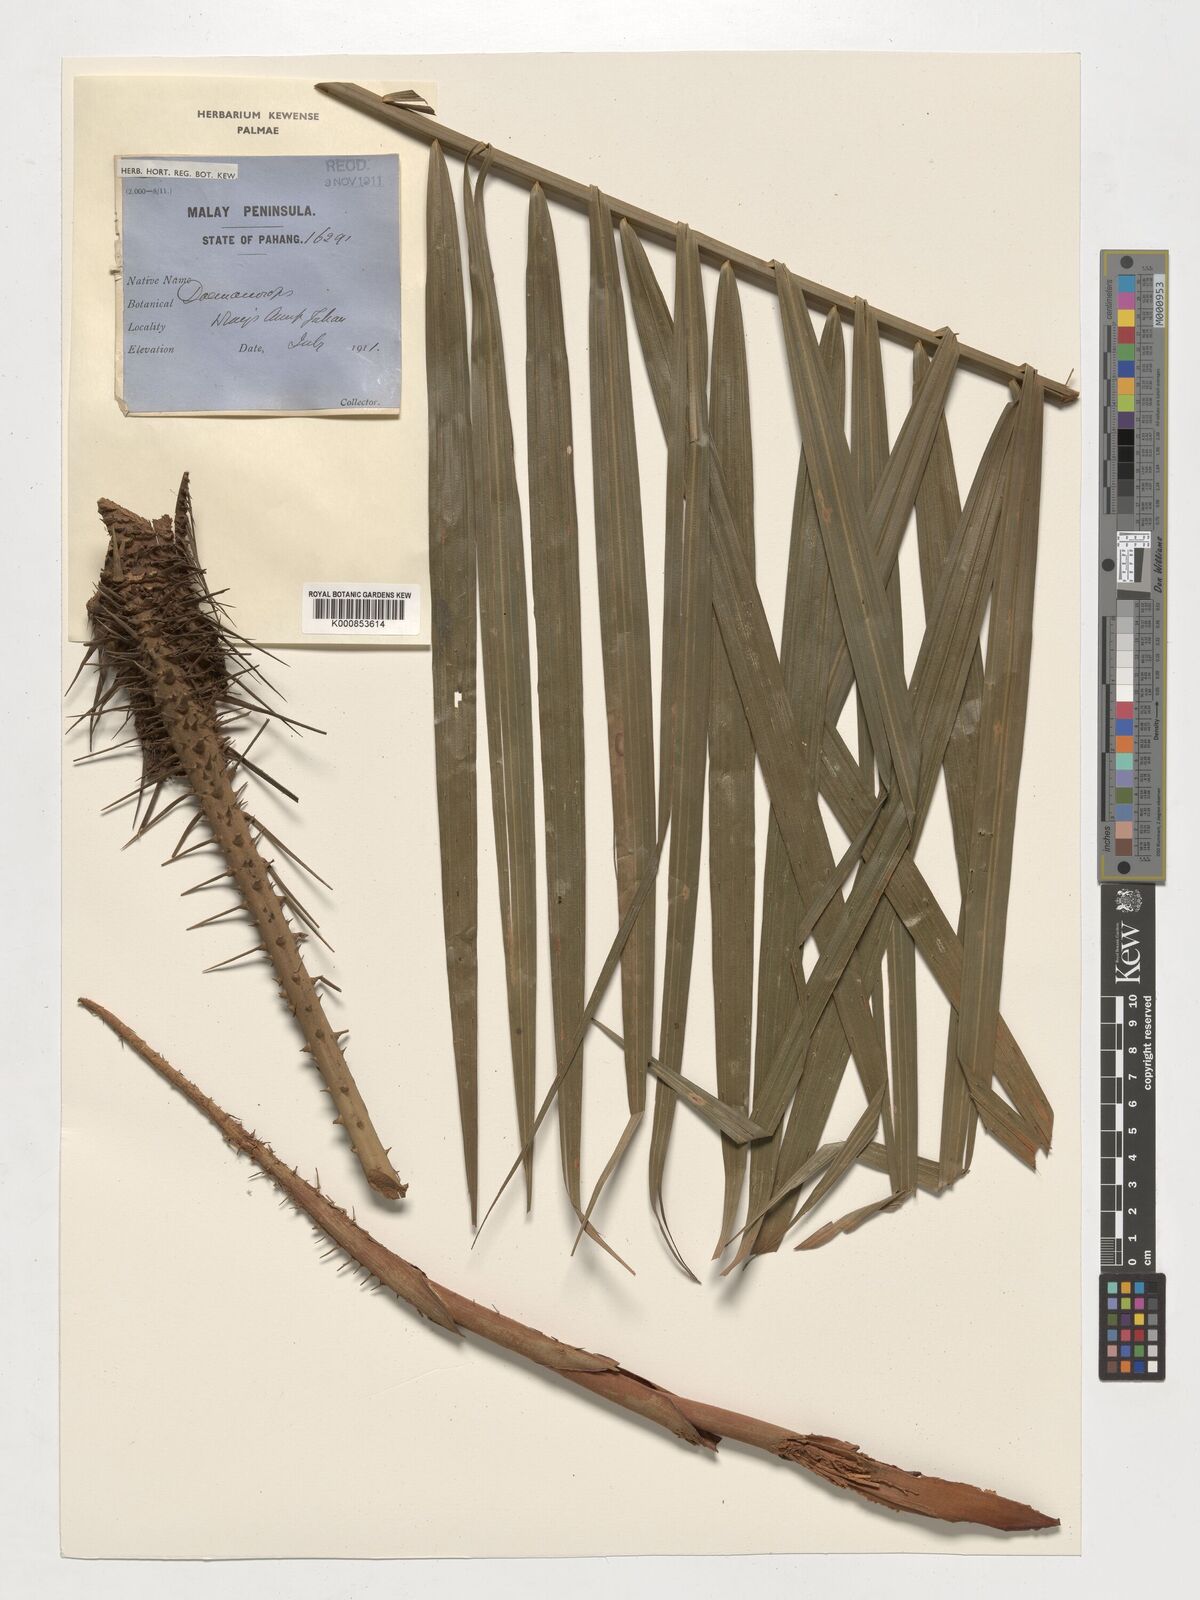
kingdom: Plantae
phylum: Tracheophyta
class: Liliopsida
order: Arecales
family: Arecaceae
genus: Daemonorops
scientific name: Daemonorops
